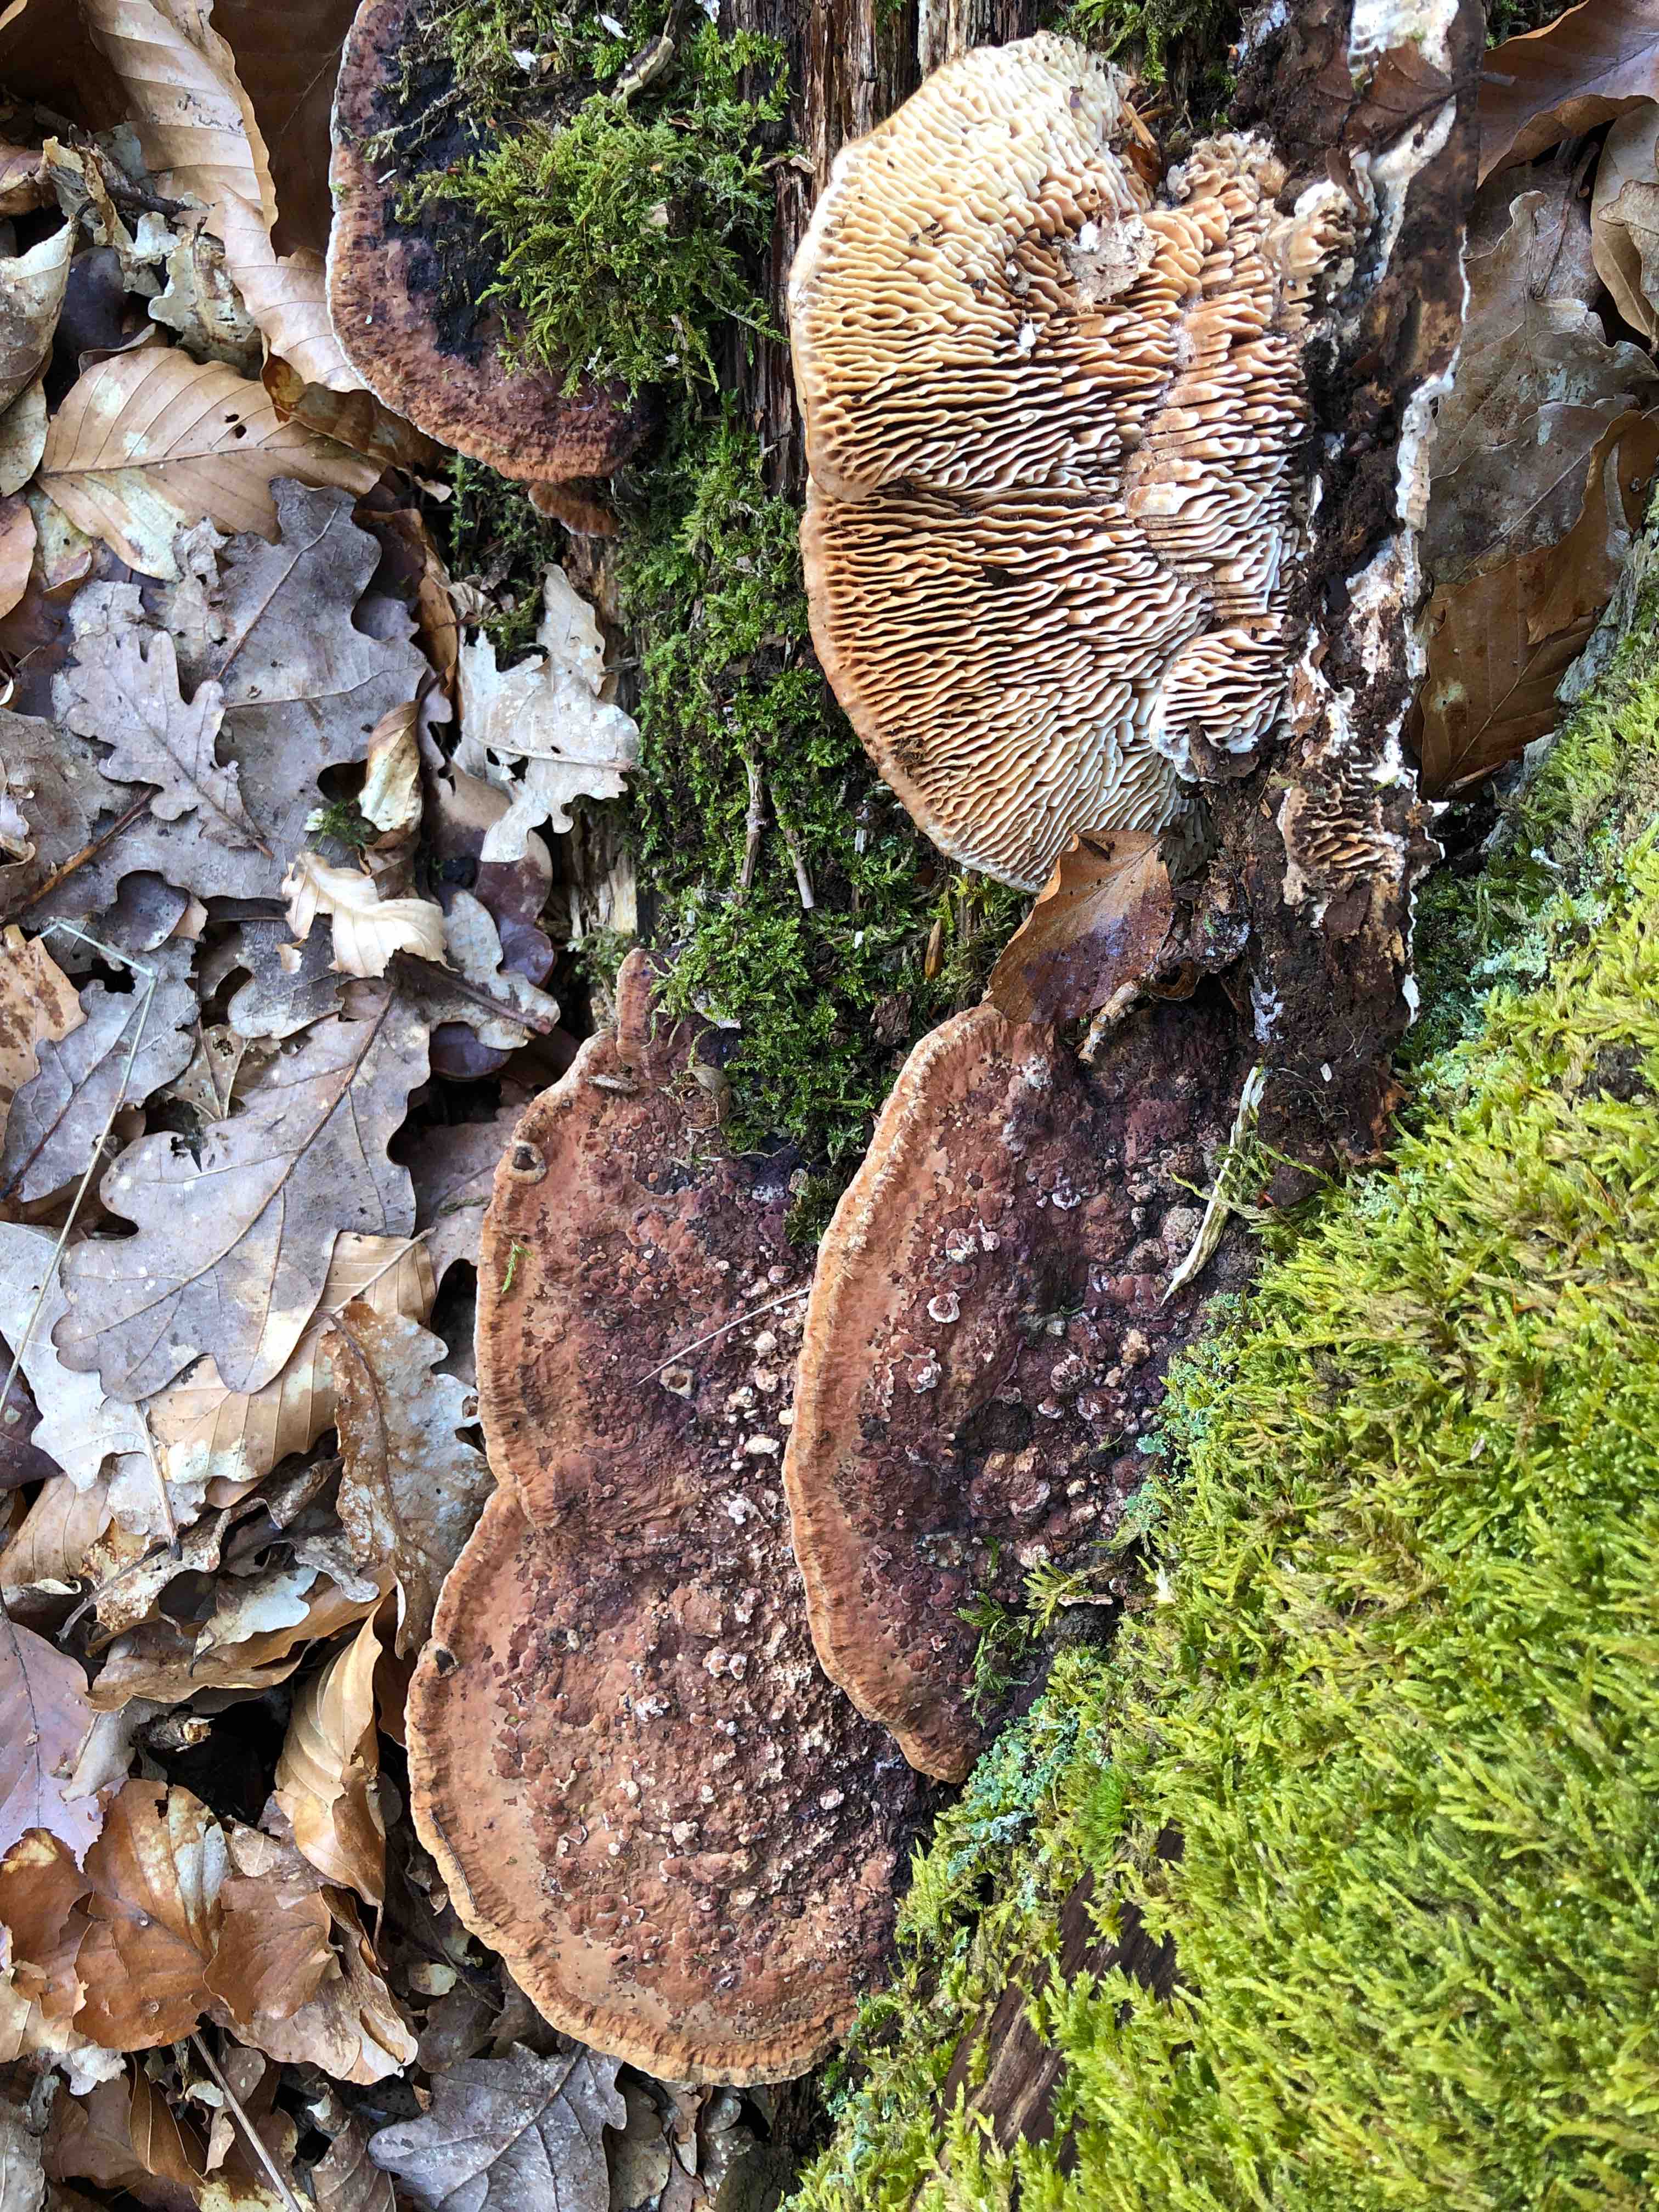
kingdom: Fungi
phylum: Basidiomycota
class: Agaricomycetes
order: Polyporales
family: Fomitopsidaceae
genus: Daedalea
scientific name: Daedalea quercina
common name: ege-labyrintsvamp
